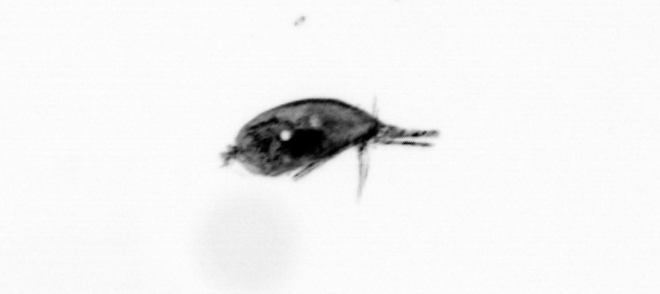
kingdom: Animalia
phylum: Arthropoda
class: Maxillopoda
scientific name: Maxillopoda
